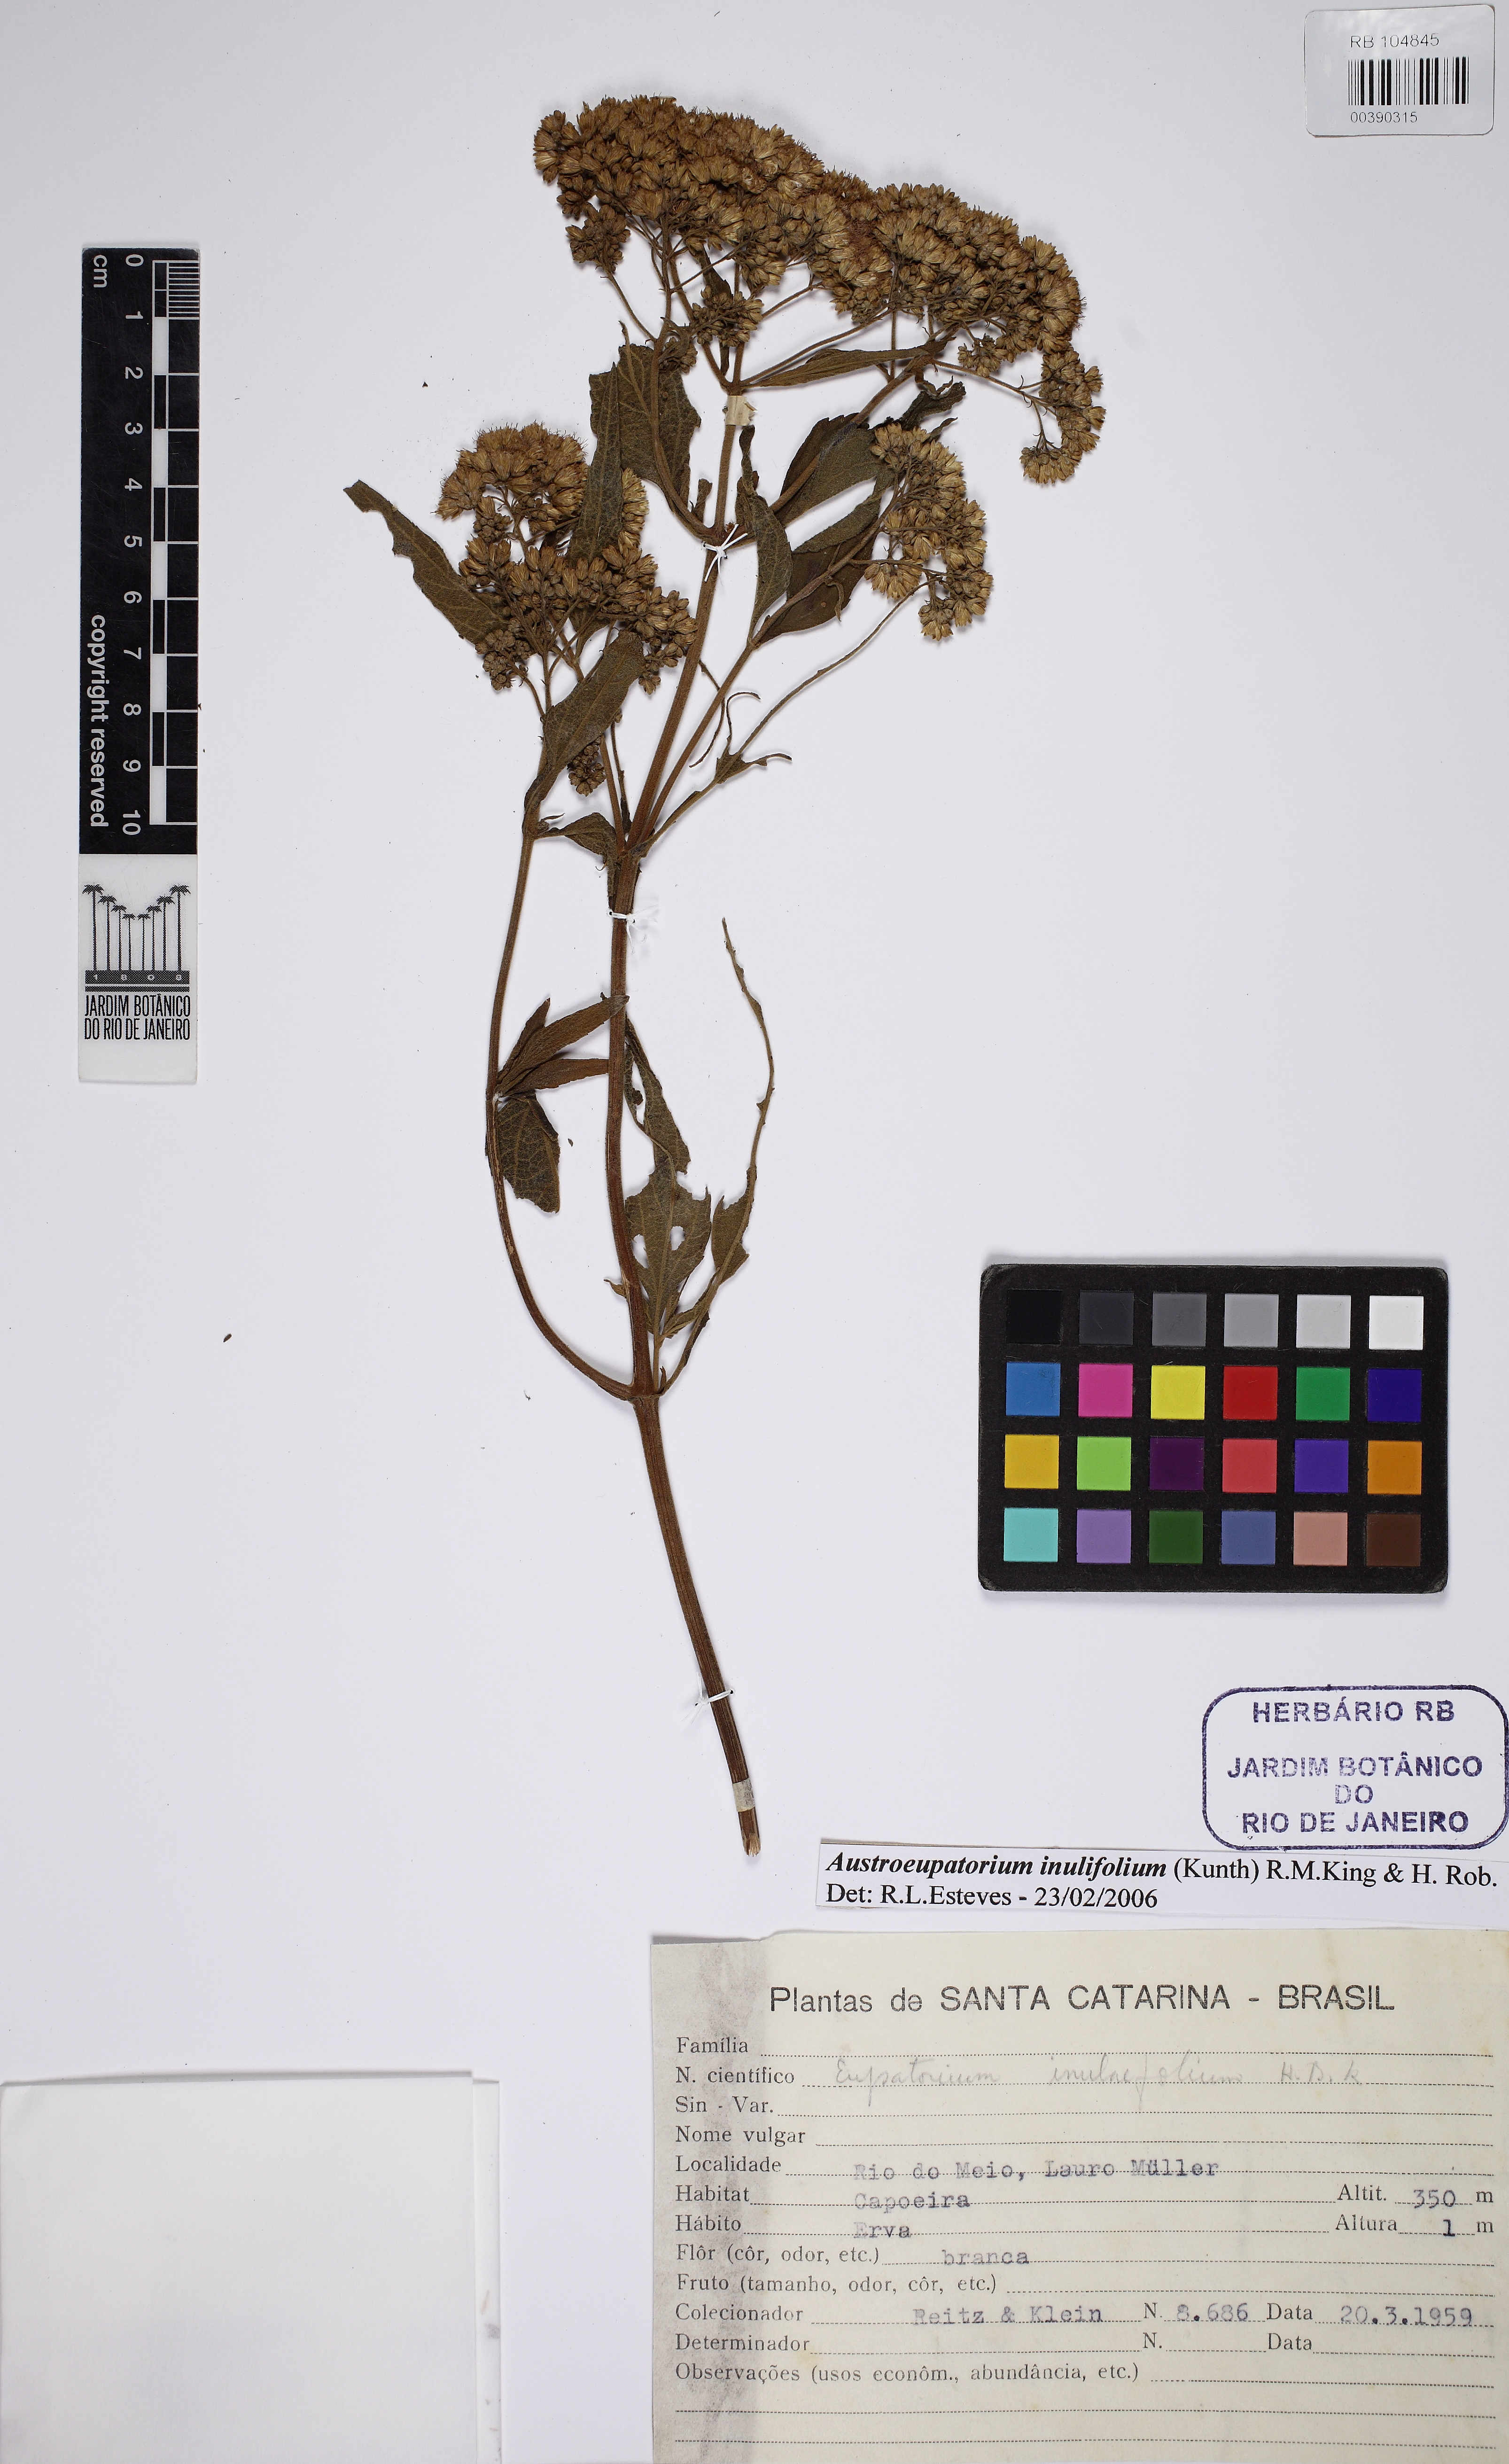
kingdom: Plantae
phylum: Tracheophyta
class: Magnoliopsida
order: Asterales
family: Asteraceae
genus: Austroeupatorium
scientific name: Austroeupatorium inulaefolium
